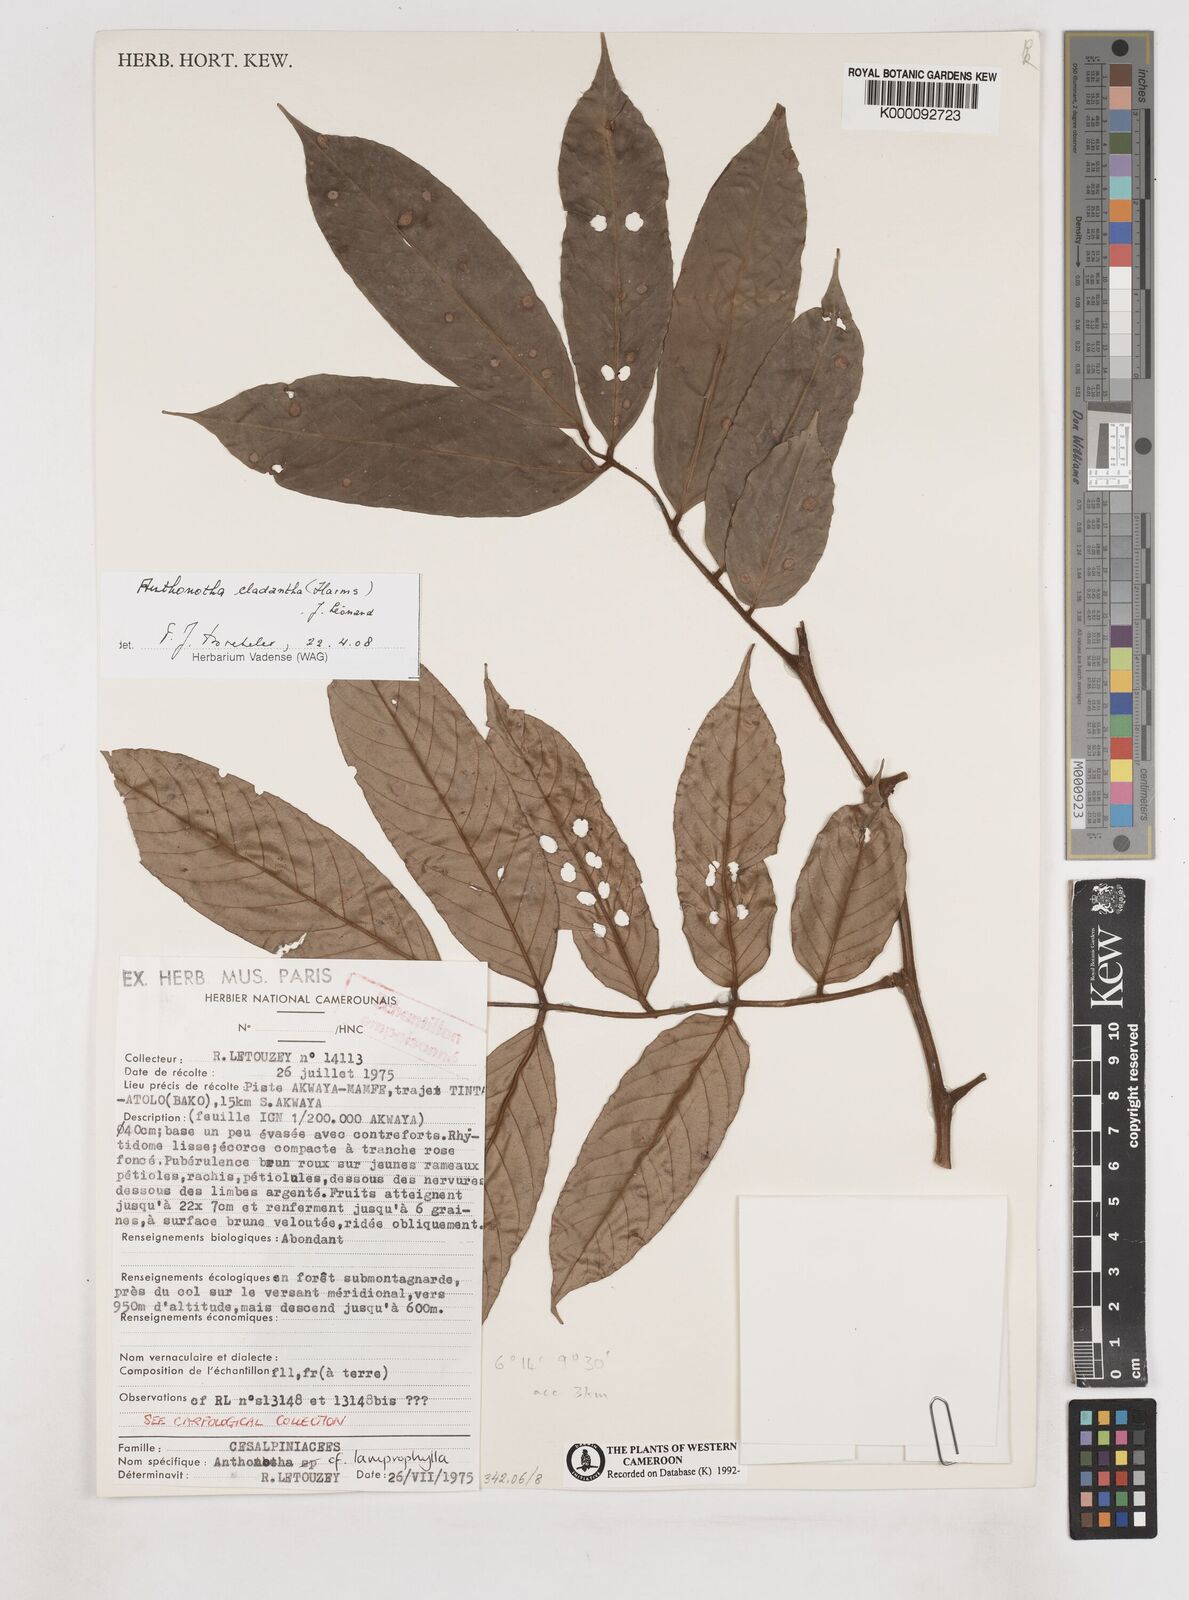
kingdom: Plantae
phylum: Tracheophyta
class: Magnoliopsida
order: Fabales
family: Fabaceae
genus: Anthonotha
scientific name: Anthonotha
